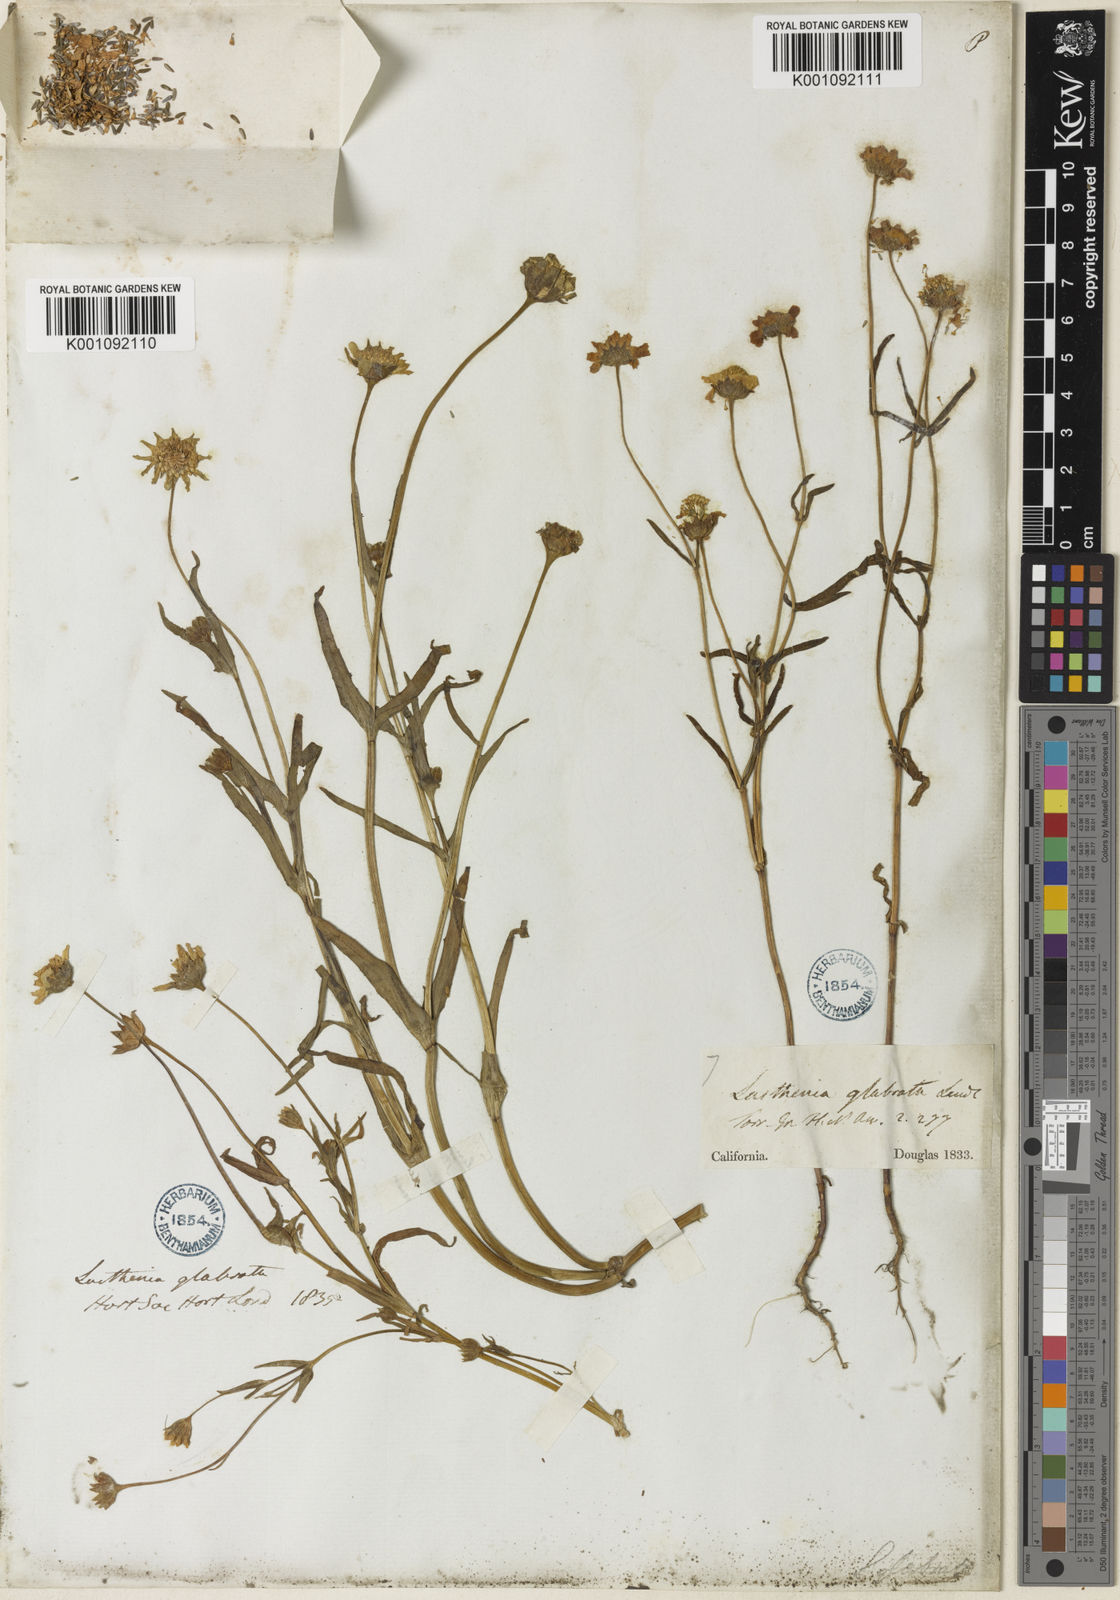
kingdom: Plantae
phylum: Tracheophyta
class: Magnoliopsida
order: Asterales
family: Asteraceae
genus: Lasthenia
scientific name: Lasthenia glabrata
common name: Yellow-ray lasthenia
